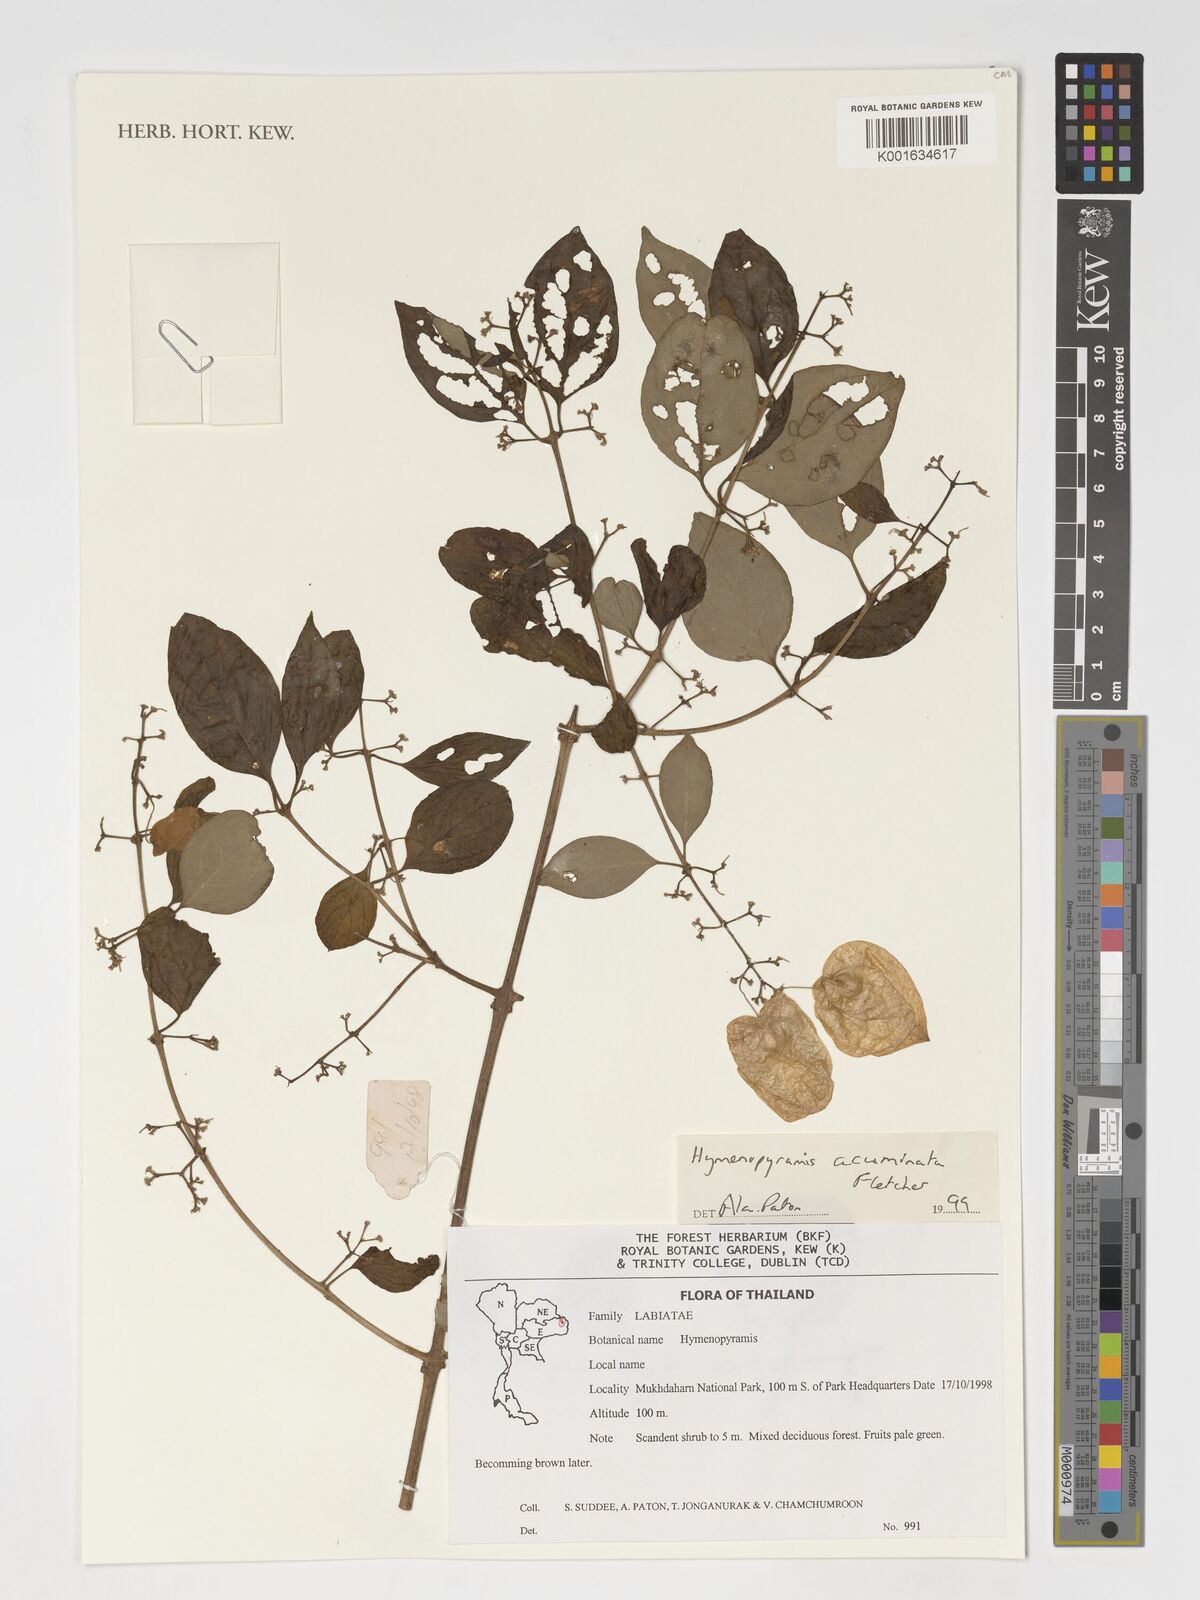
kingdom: Plantae
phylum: Tracheophyta
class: Magnoliopsida
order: Lamiales
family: Lamiaceae
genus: Hymenopyramis
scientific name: Hymenopyramis acuminata
